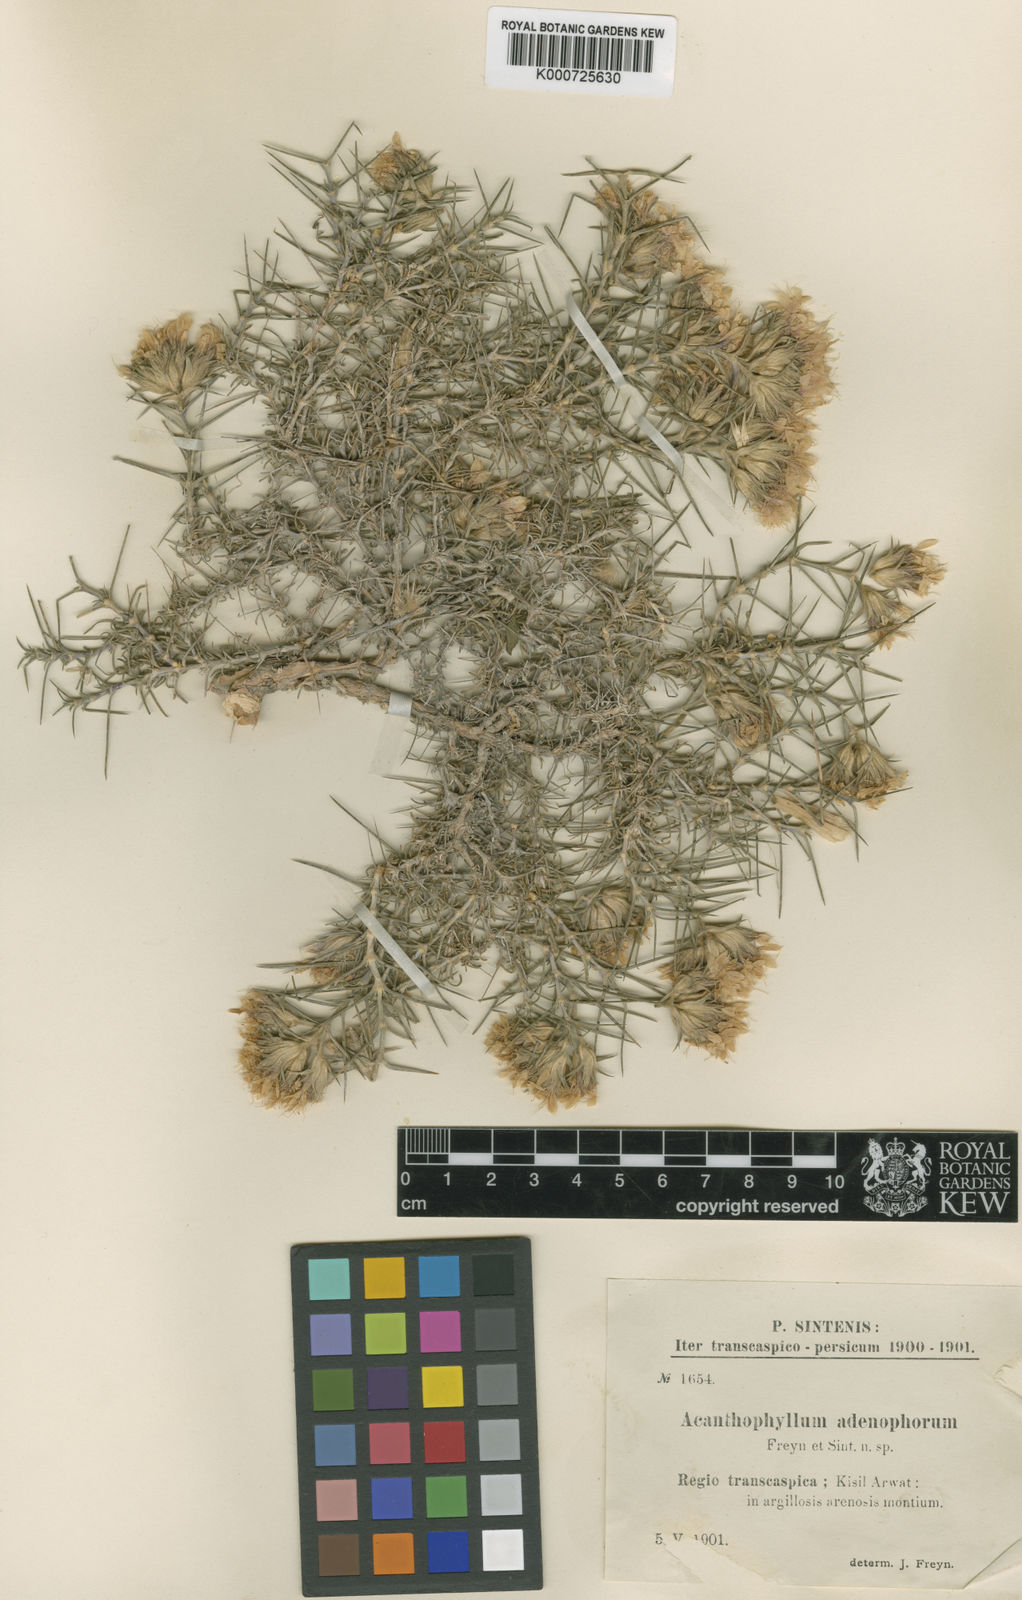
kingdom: Plantae
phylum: Tracheophyta
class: Magnoliopsida
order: Caryophyllales
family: Caryophyllaceae
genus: Acanthophyllum
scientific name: Acanthophyllum adenophorum
